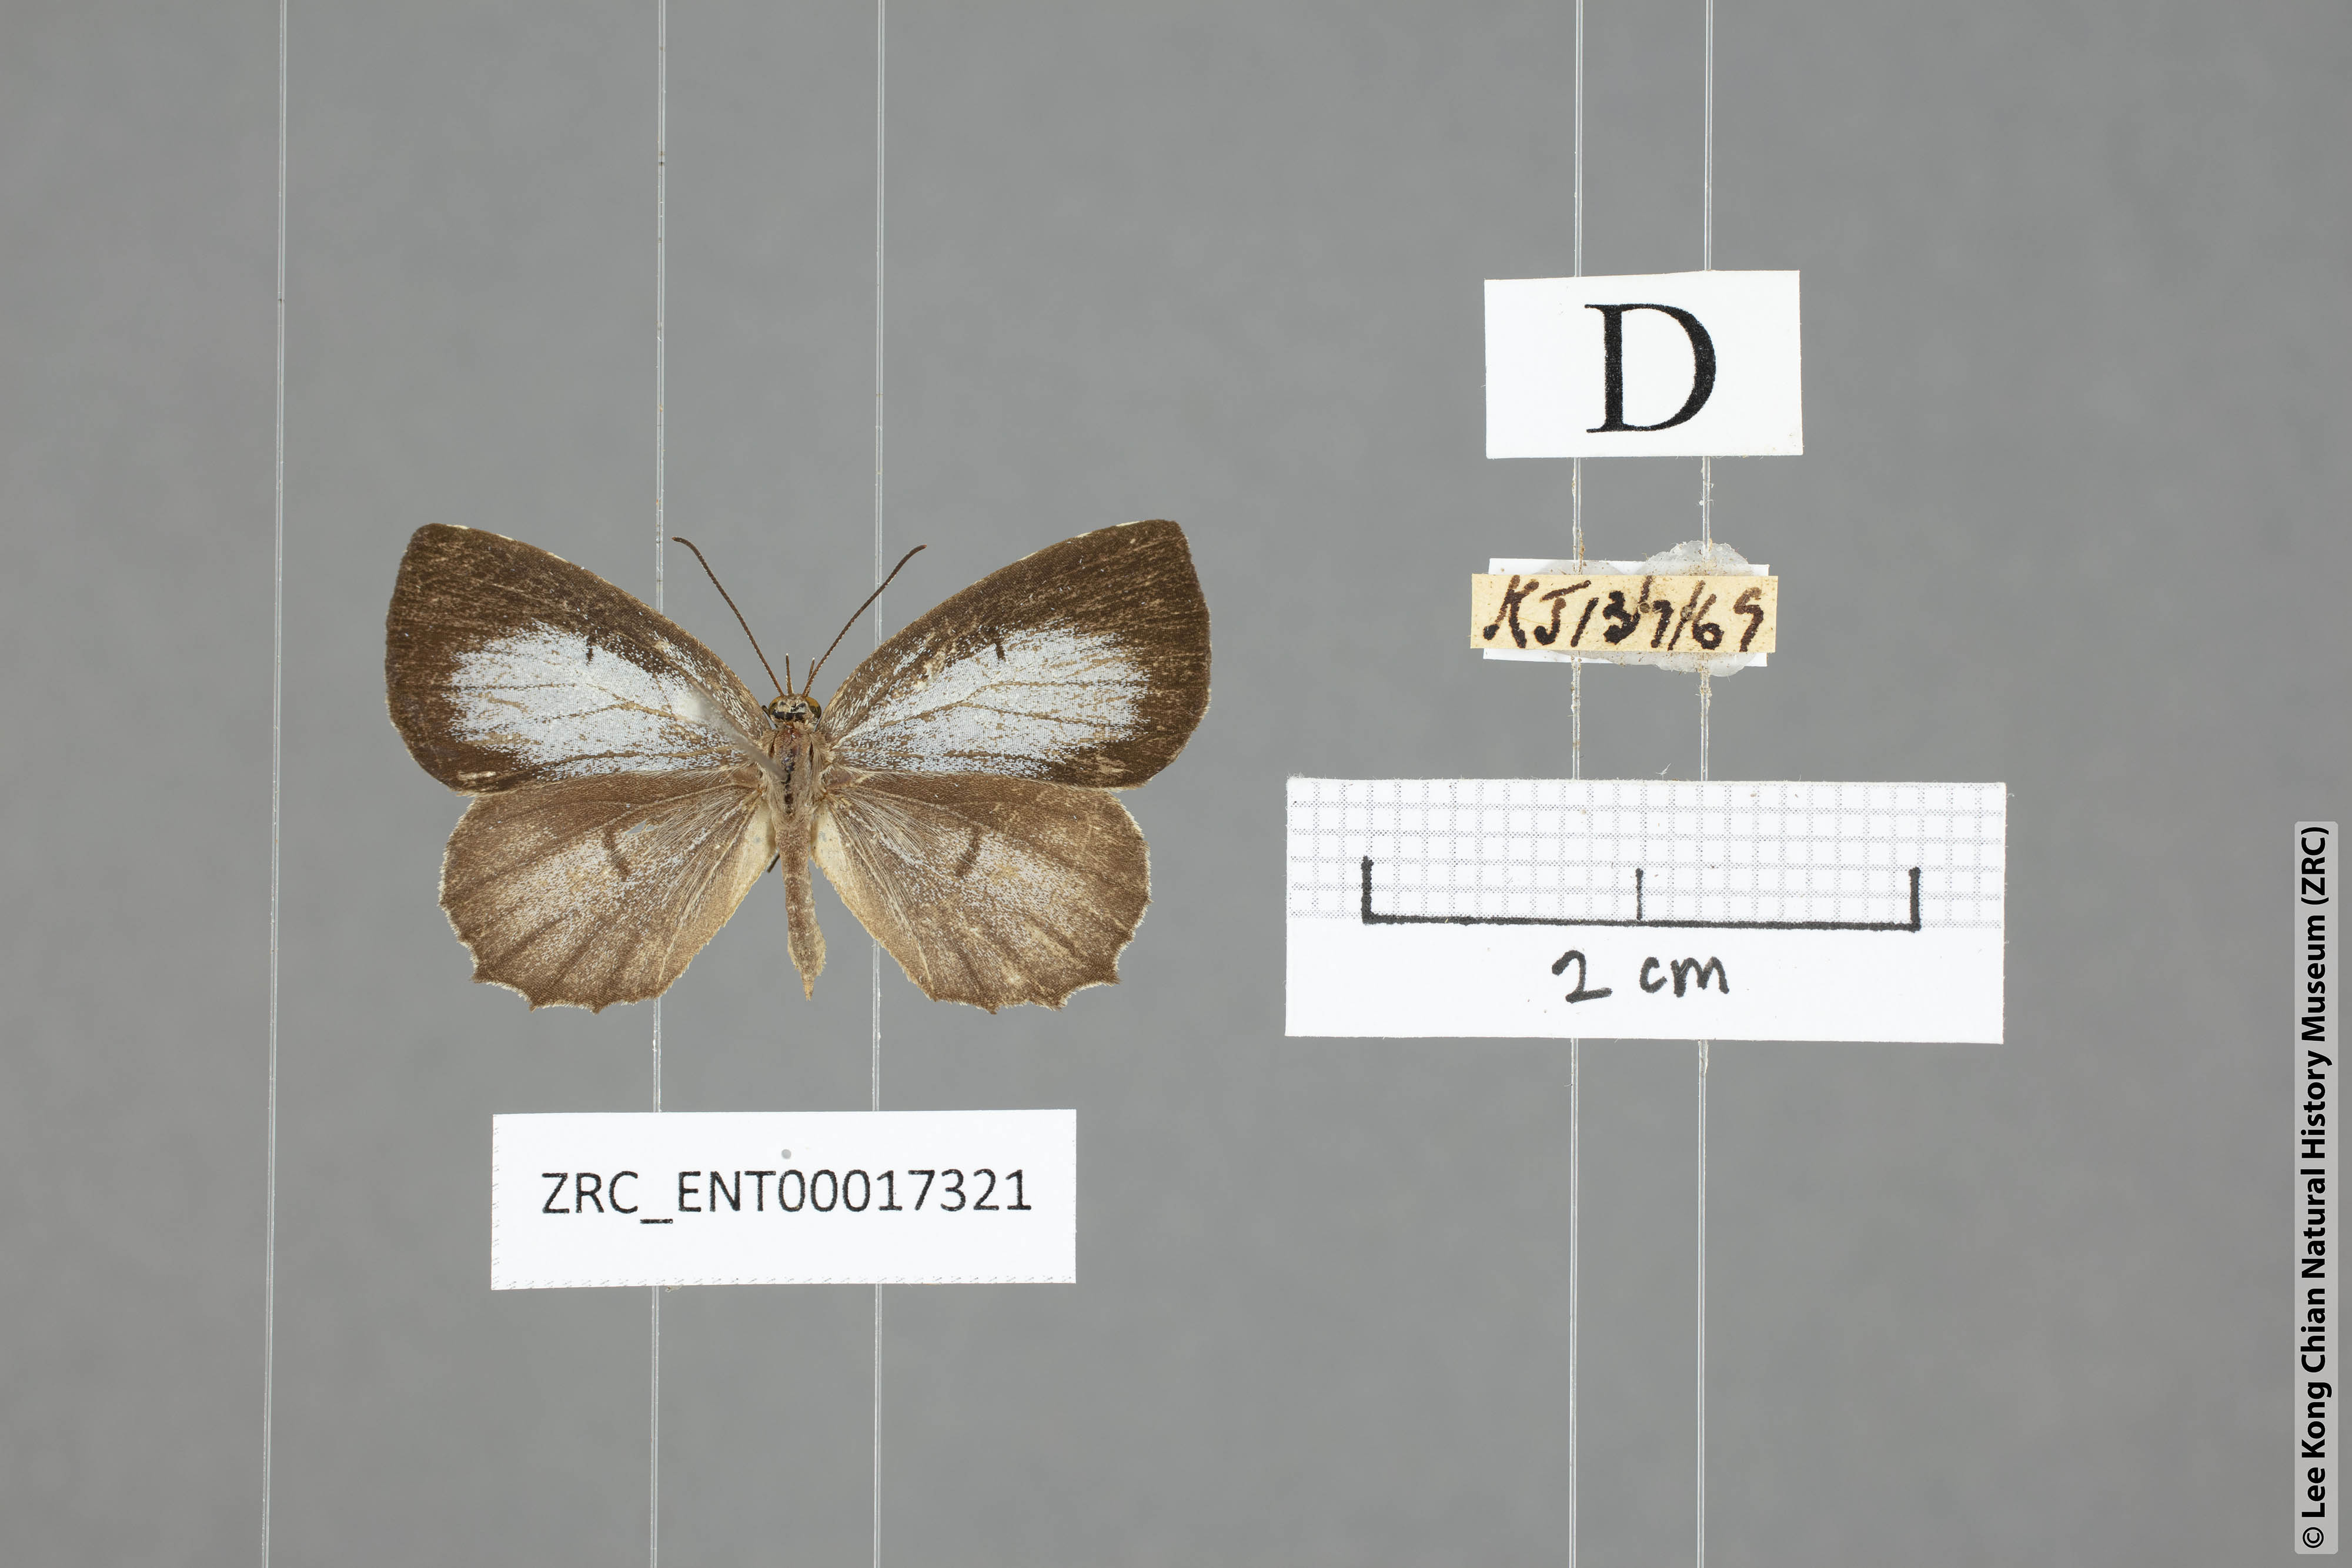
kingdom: Animalia
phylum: Arthropoda
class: Insecta
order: Lepidoptera
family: Lycaenidae
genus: Allotinus
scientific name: Allotinus subviolaceus
